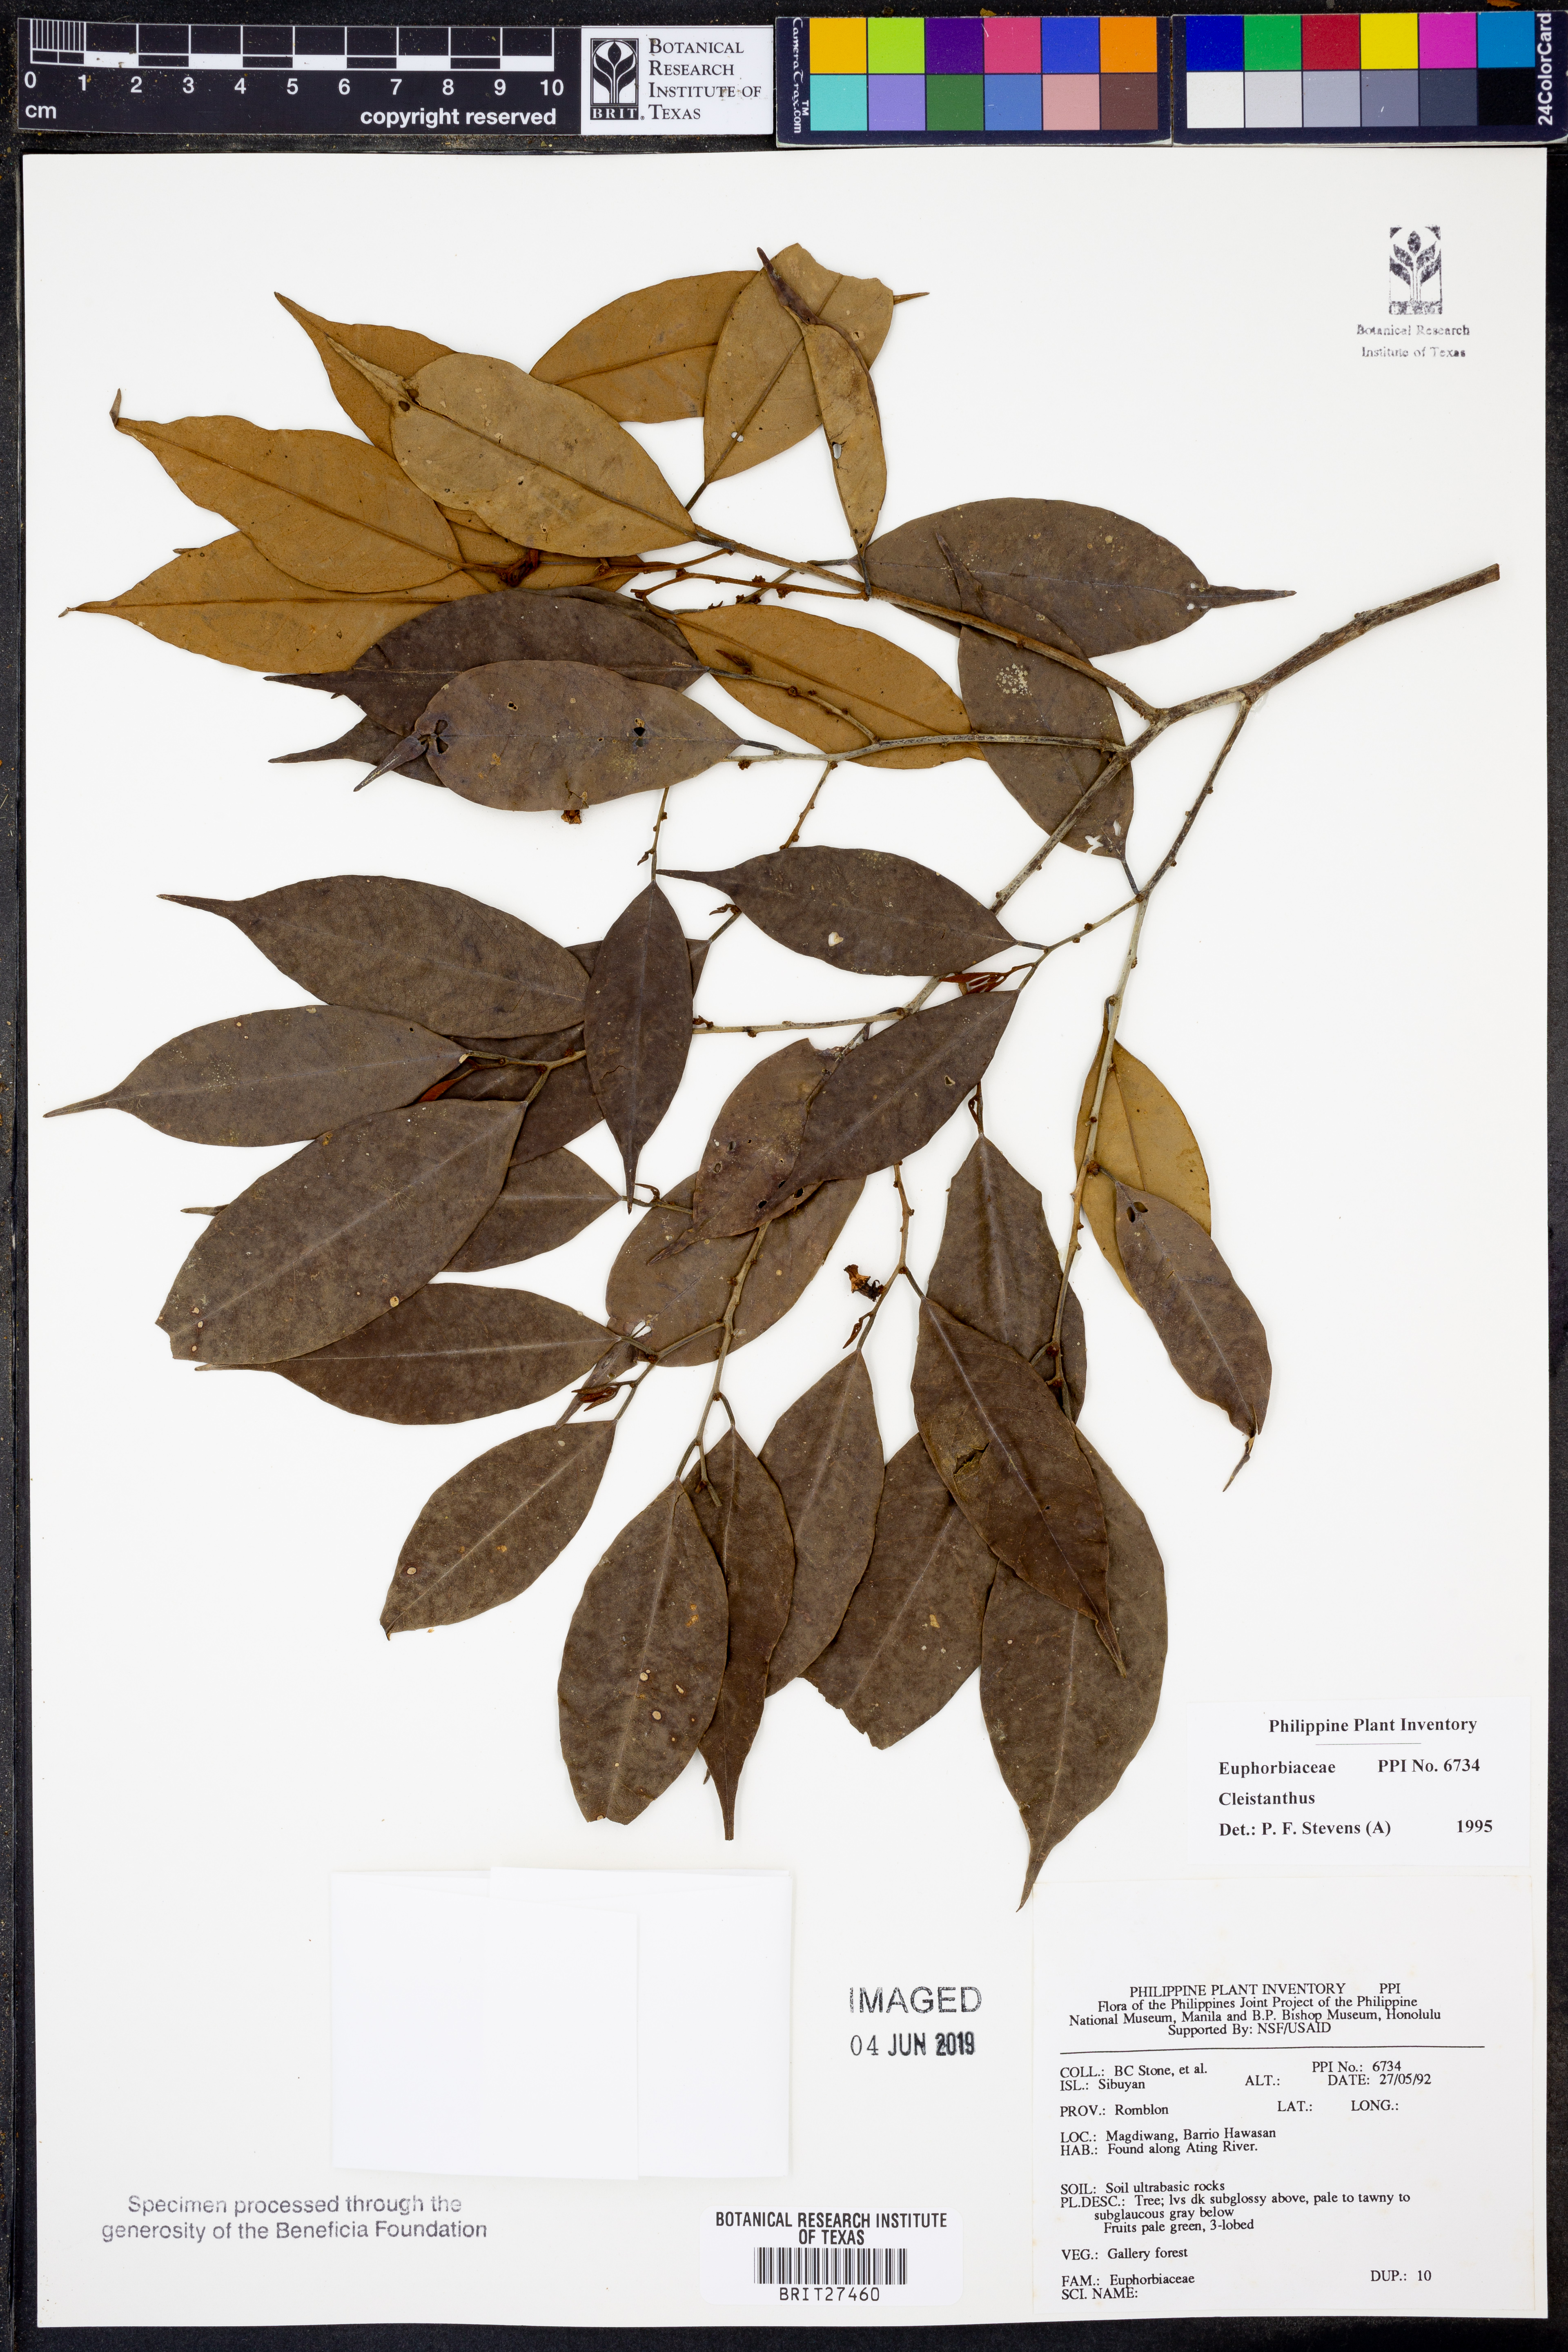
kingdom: Plantae
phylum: Tracheophyta
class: Magnoliopsida
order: Malpighiales
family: Phyllanthaceae
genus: Cleistanthus
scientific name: Cleistanthus
